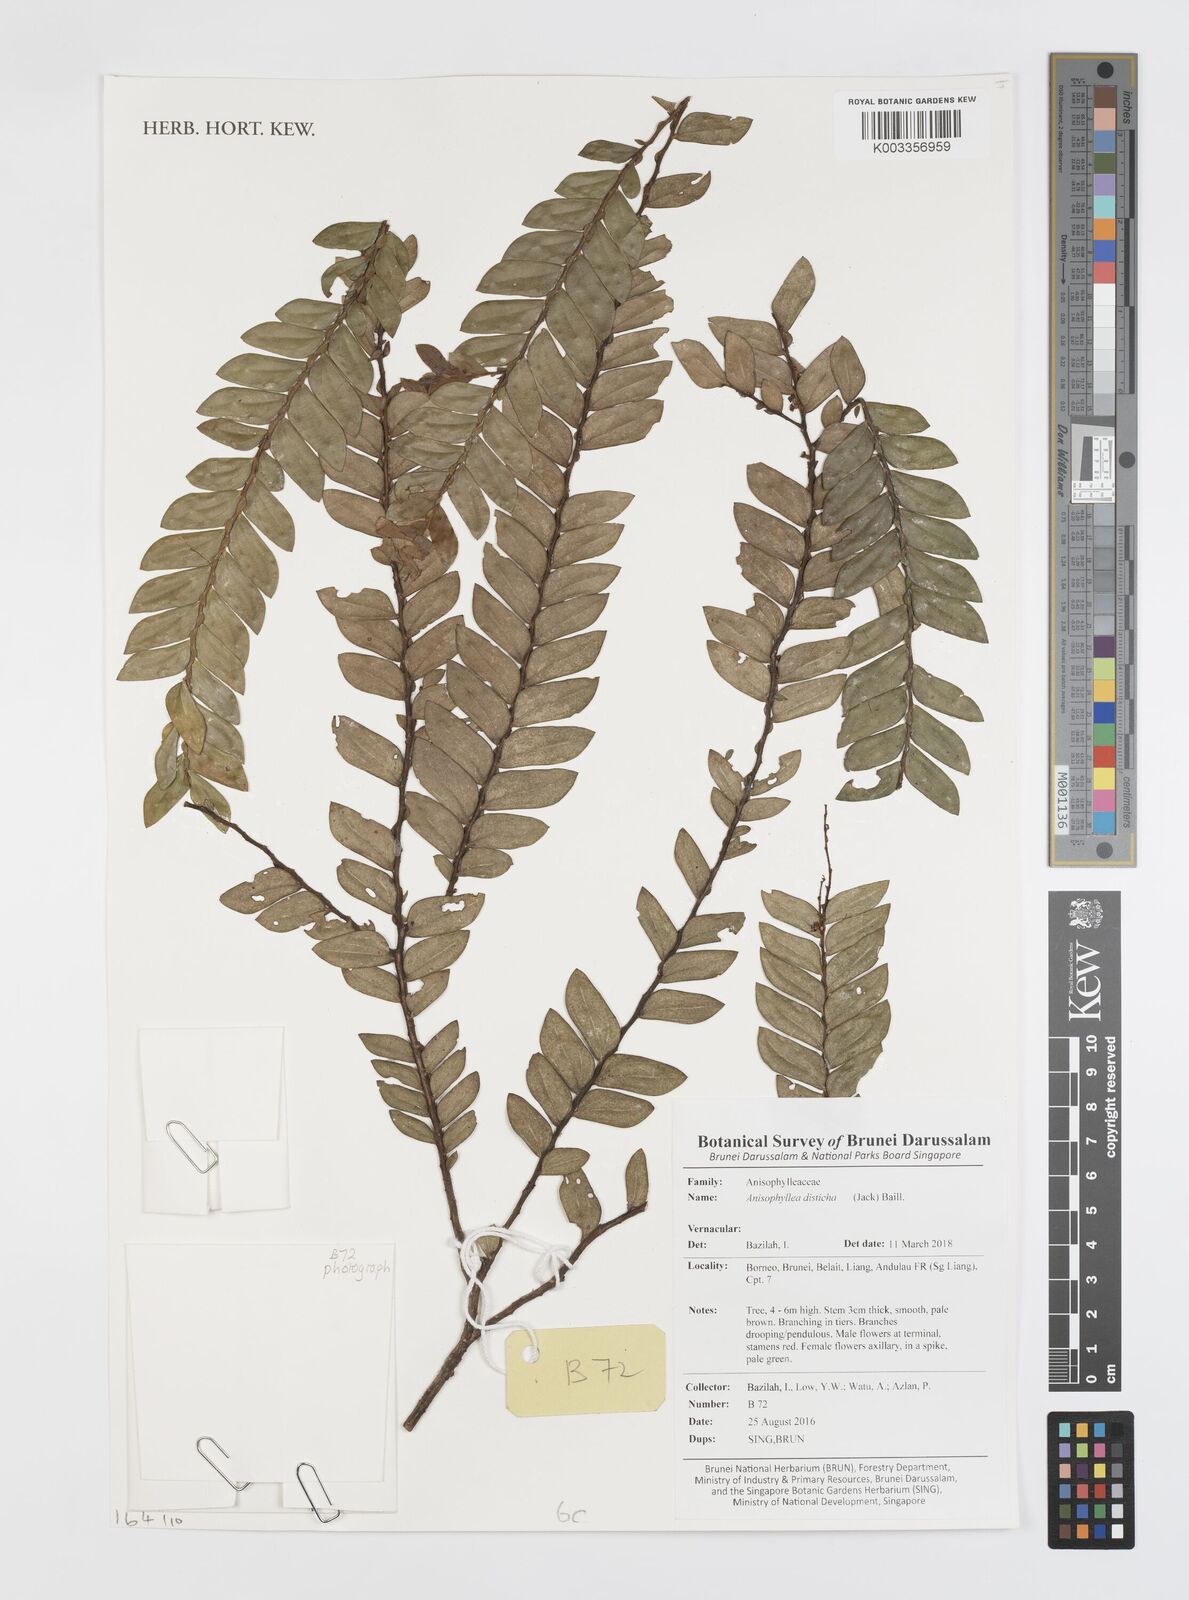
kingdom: Plantae
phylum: Tracheophyta
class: Magnoliopsida
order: Cucurbitales
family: Anisophylleaceae
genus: Anisophyllea
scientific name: Anisophyllea disticha
